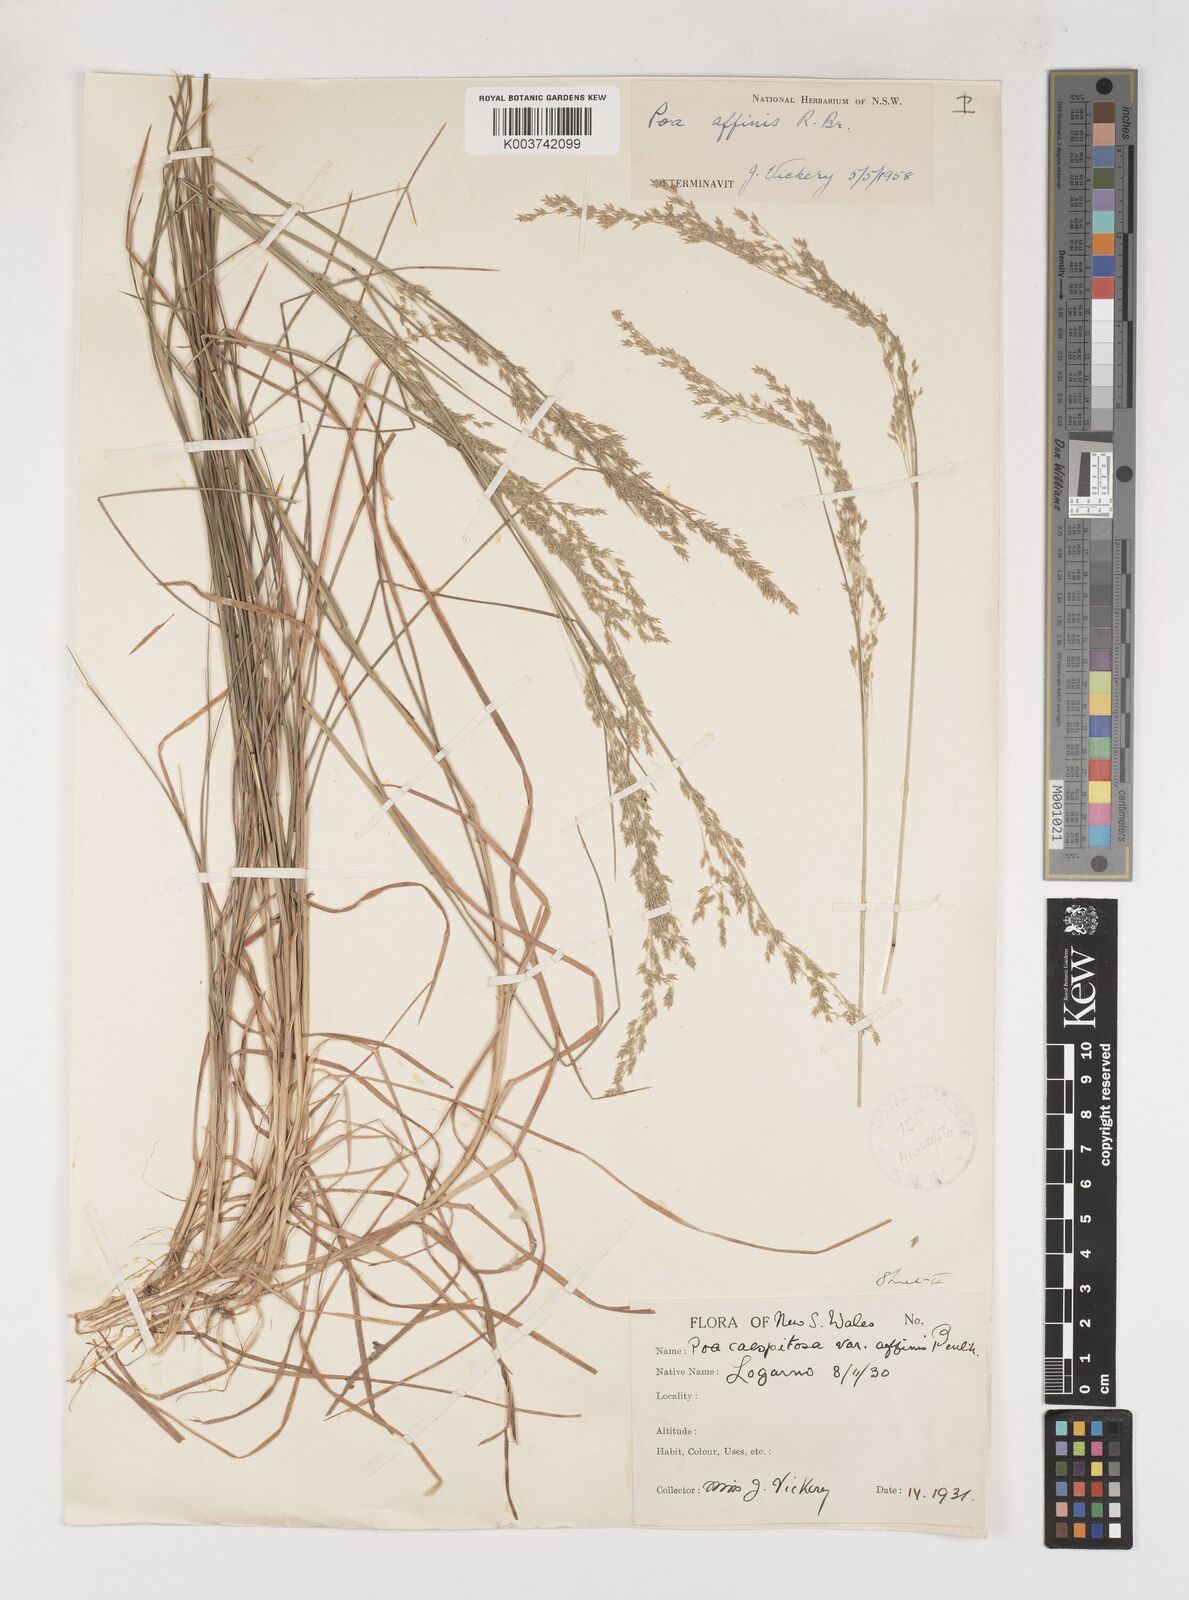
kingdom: Plantae
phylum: Tracheophyta
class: Liliopsida
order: Poales
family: Poaceae
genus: Poa
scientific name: Poa affinis
